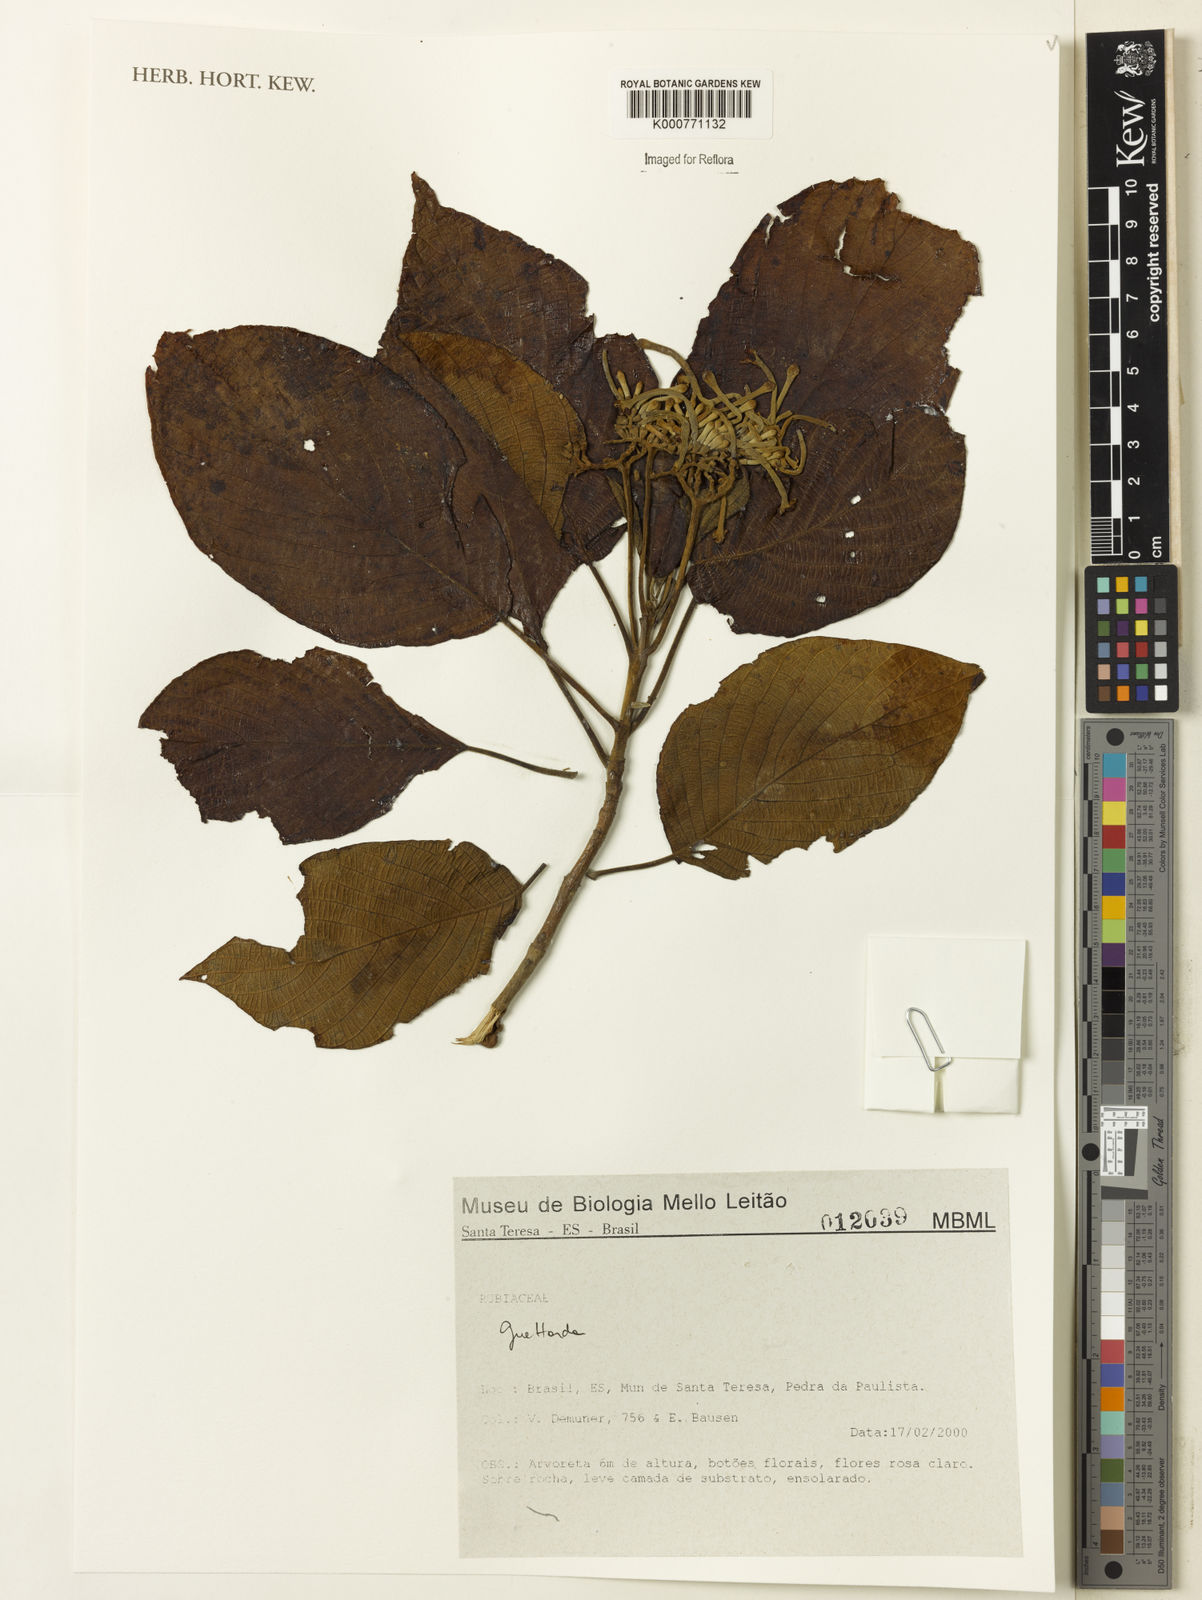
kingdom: Plantae
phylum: Tracheophyta
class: Magnoliopsida
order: Gentianales
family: Rubiaceae
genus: Guettarda
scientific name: Guettarda
